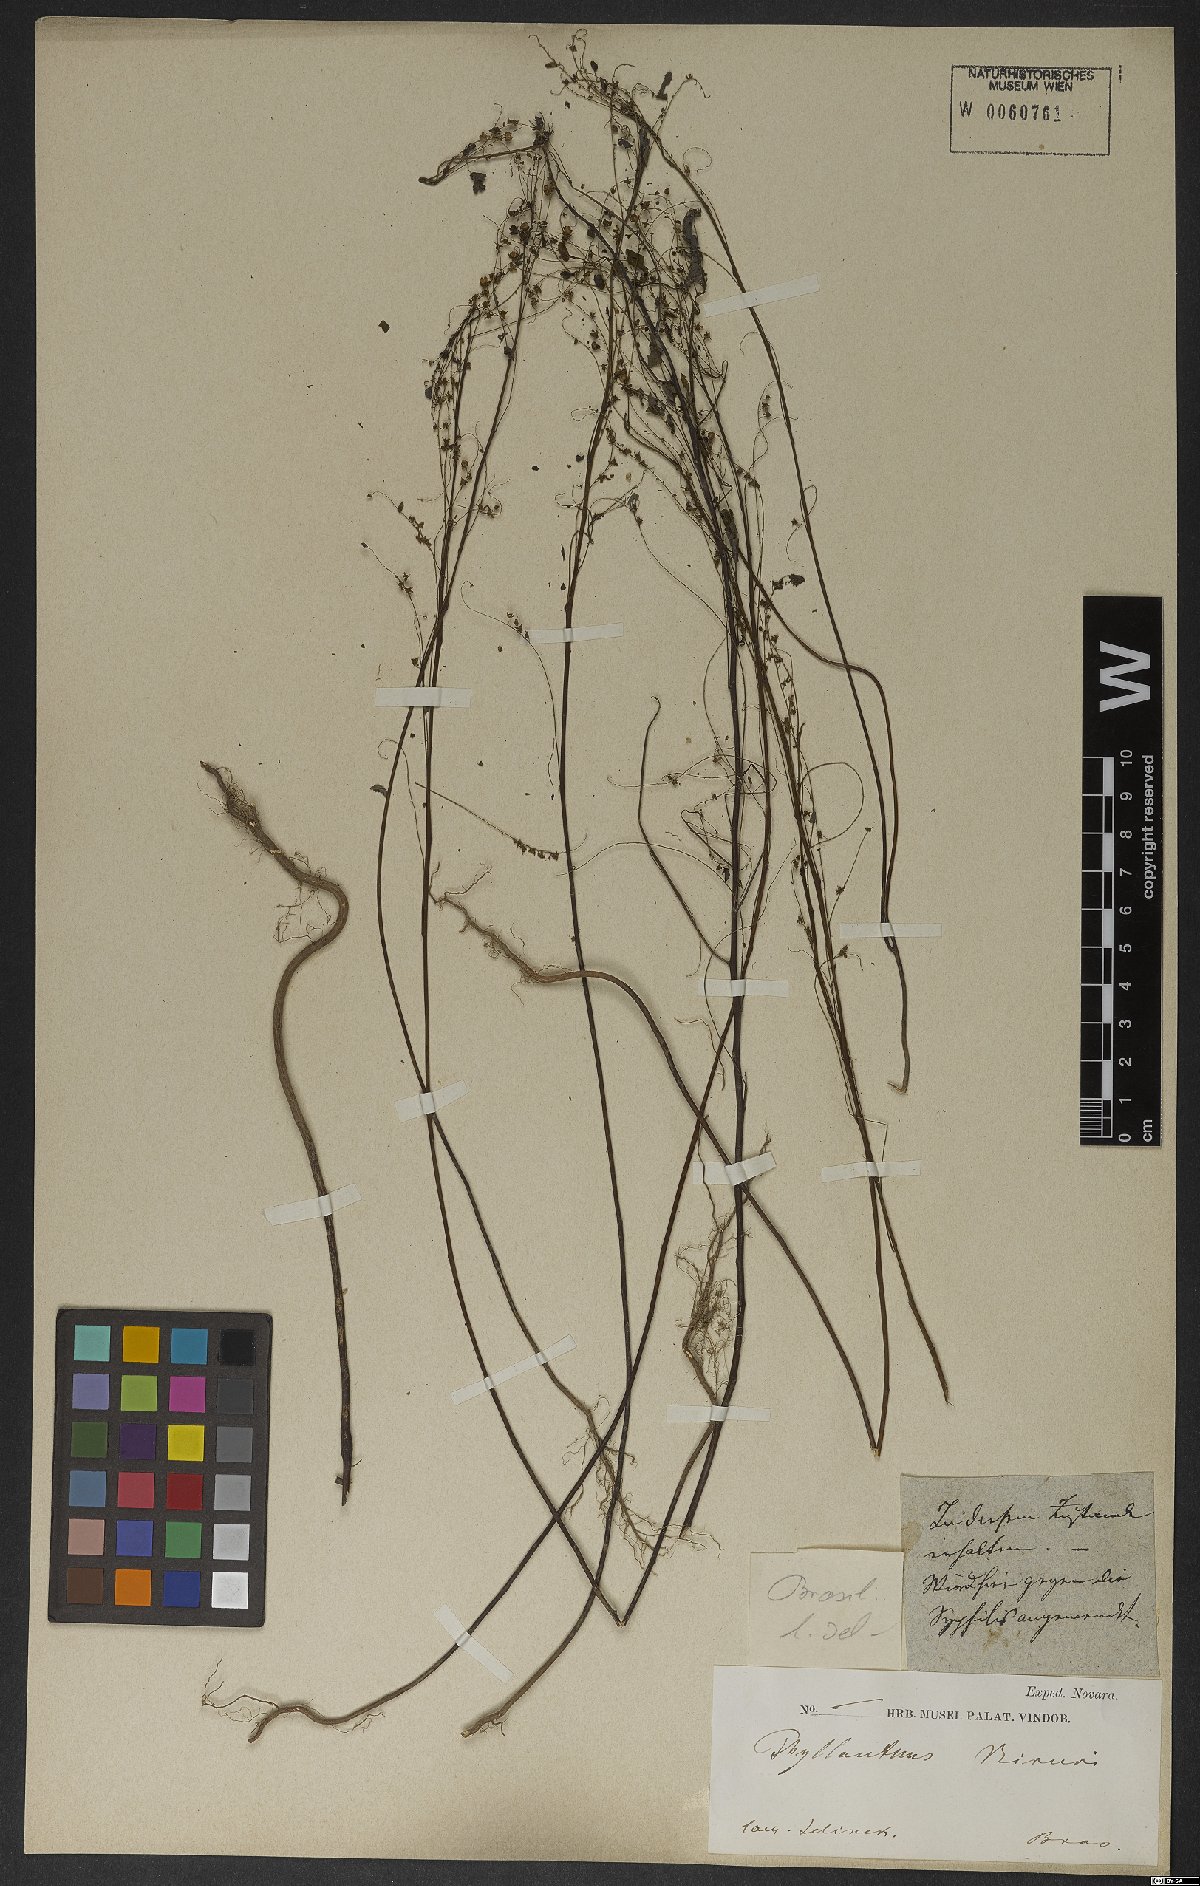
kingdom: Plantae
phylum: Tracheophyta
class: Magnoliopsida
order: Malpighiales
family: Phyllanthaceae
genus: Phyllanthus
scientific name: Phyllanthus
